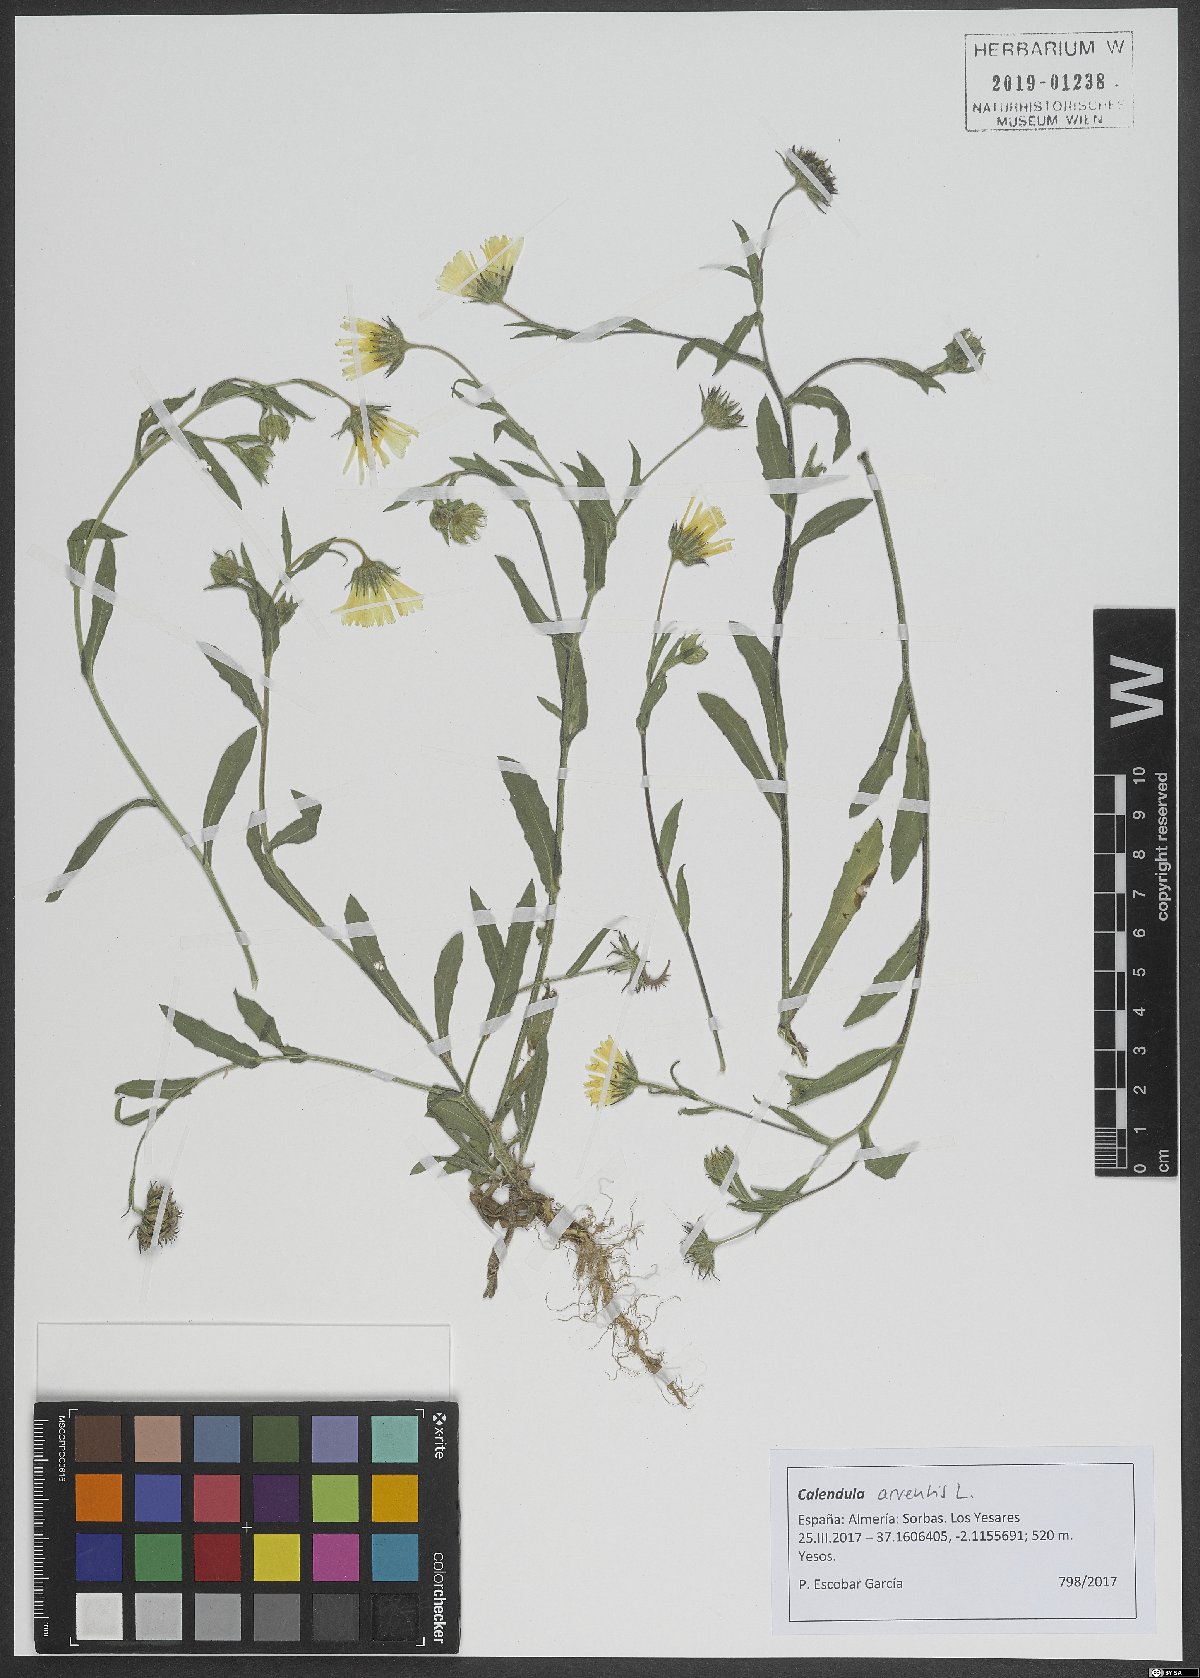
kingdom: Plantae
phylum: Tracheophyta
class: Magnoliopsida
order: Asterales
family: Asteraceae
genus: Calendula
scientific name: Calendula arvensis
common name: Field marigold
